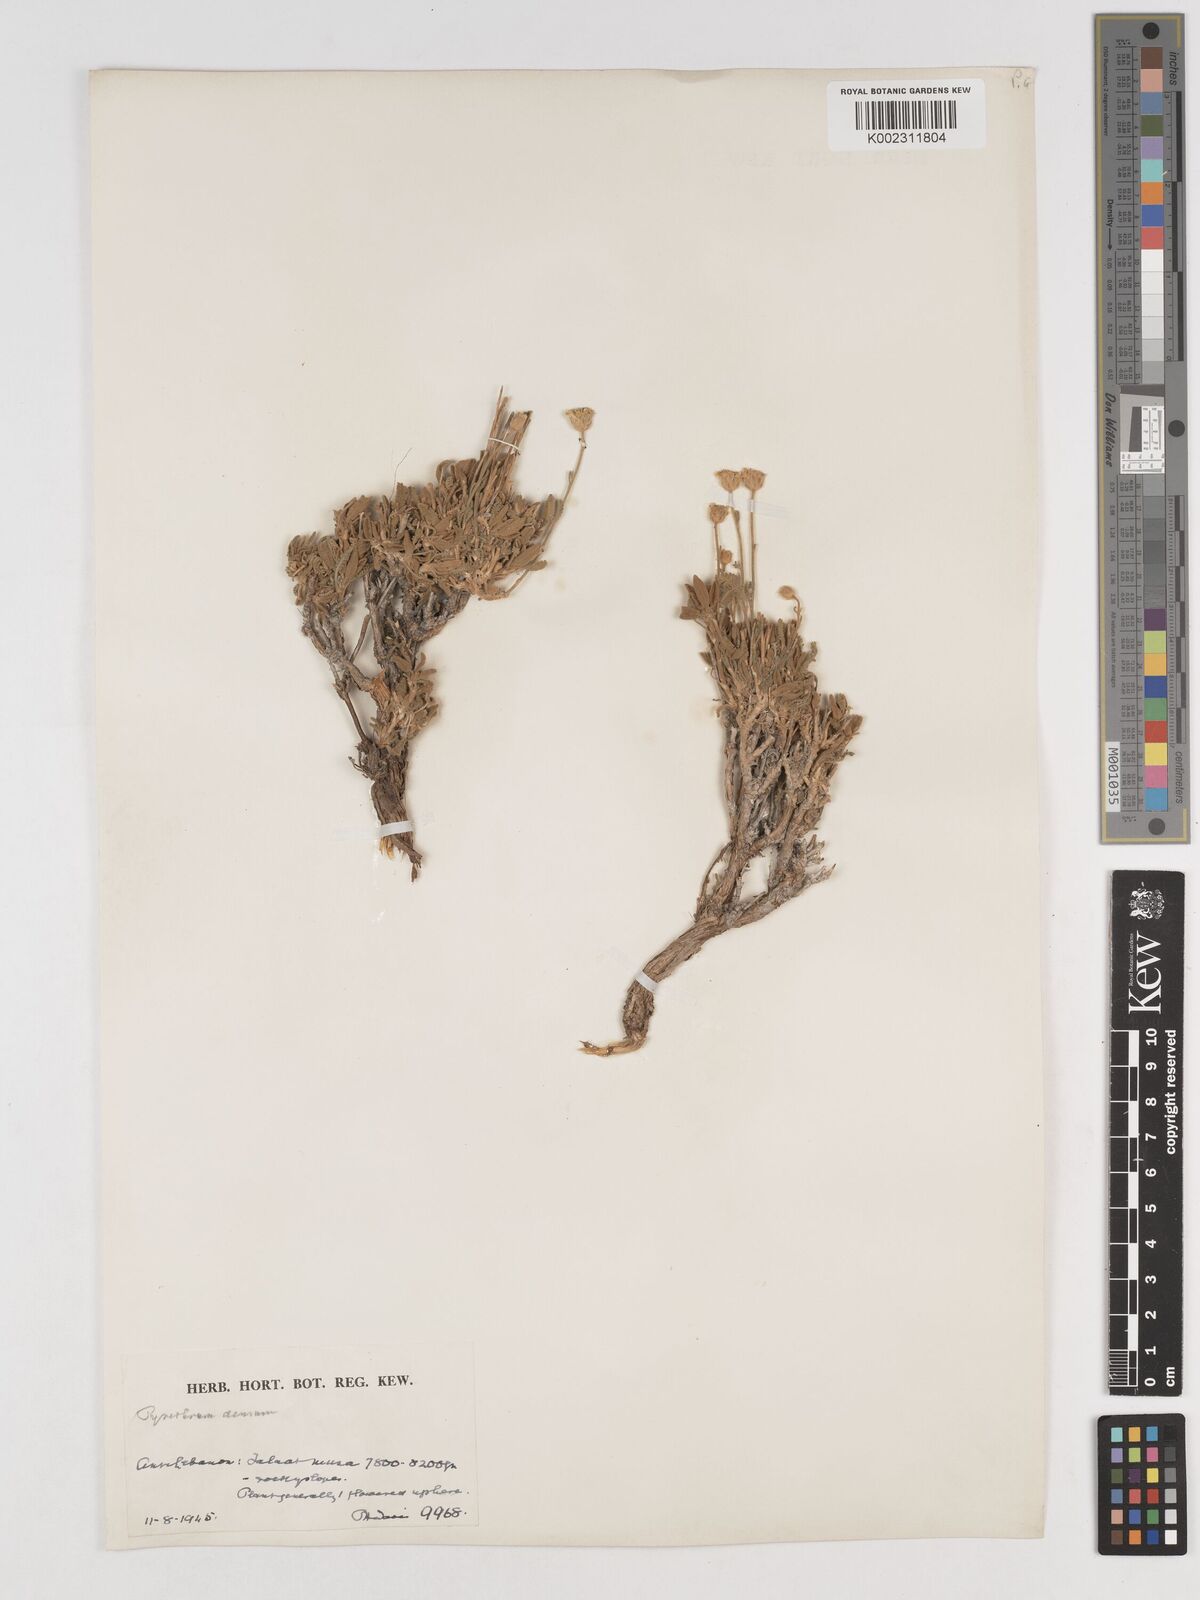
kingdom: Plantae
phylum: Tracheophyta
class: Magnoliopsida
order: Asterales
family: Asteraceae
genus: Tanacetum
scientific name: Tanacetum densum
